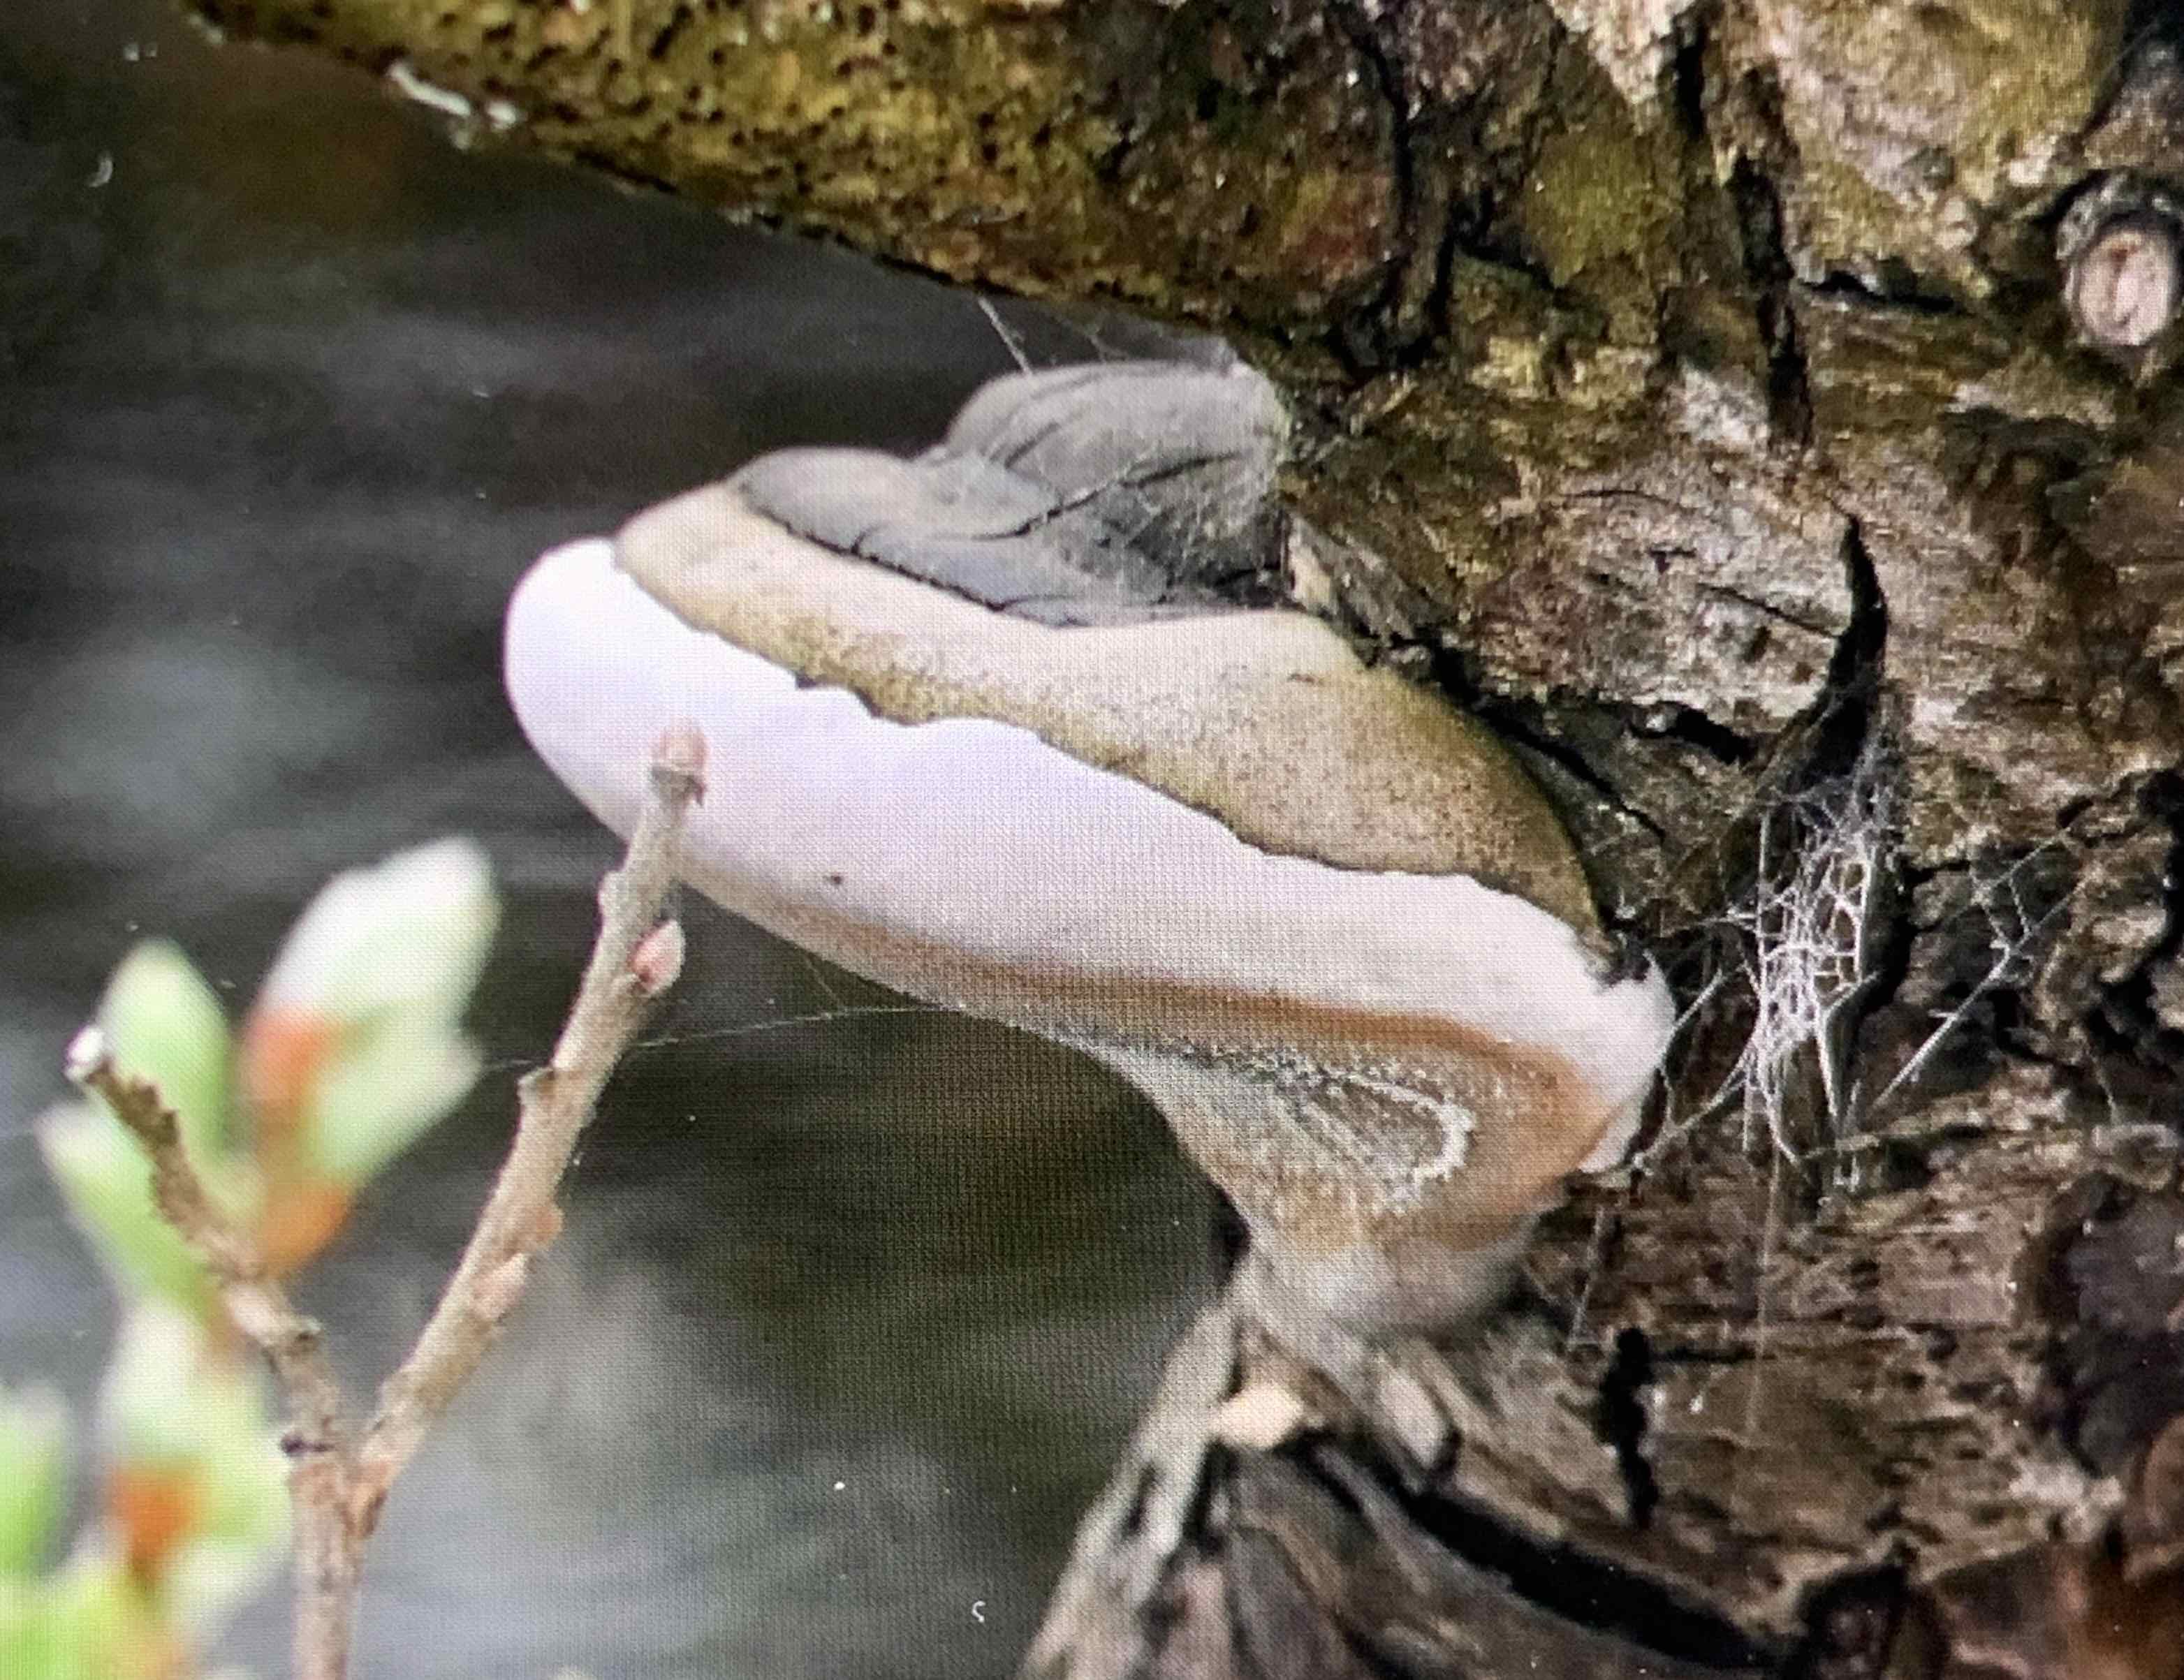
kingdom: Fungi
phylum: Basidiomycota
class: Agaricomycetes
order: Hymenochaetales
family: Hymenochaetaceae
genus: Phellinus
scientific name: Phellinus igniarius
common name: almindelig ildporesvamp
